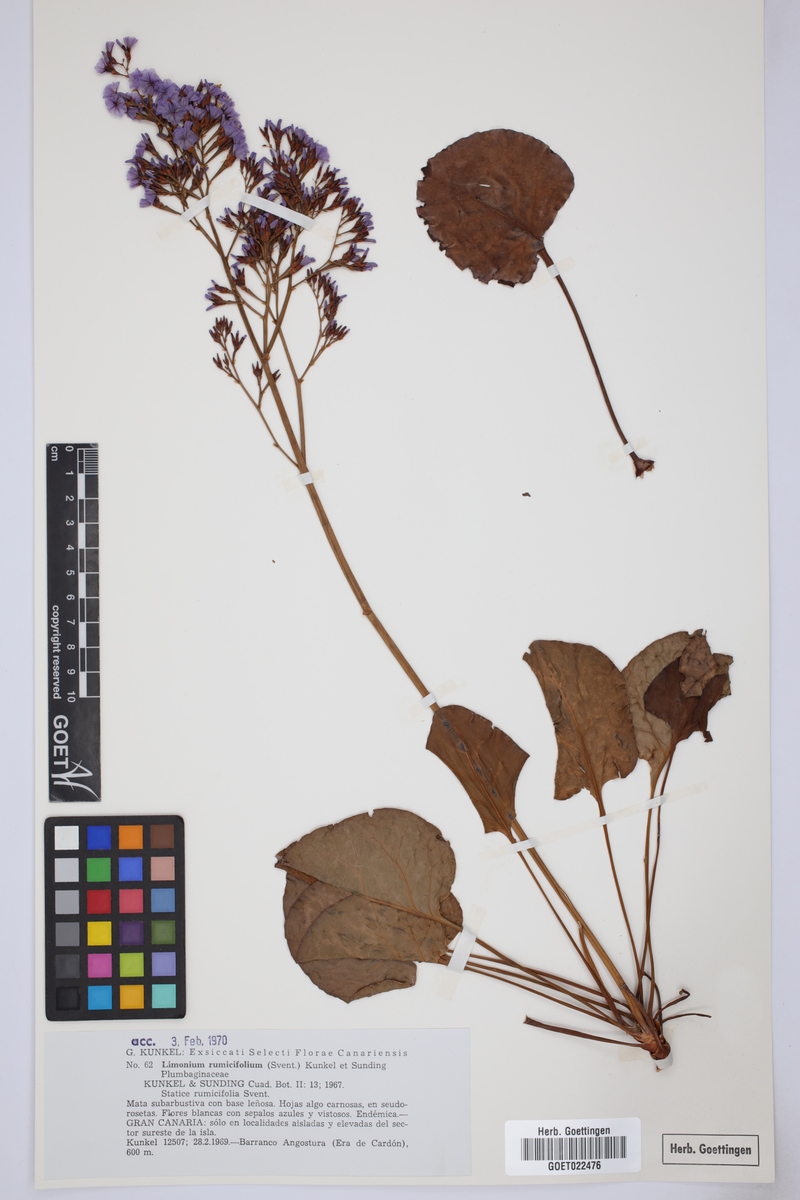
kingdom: Plantae
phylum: Tracheophyta
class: Magnoliopsida
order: Caryophyllales
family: Plumbaginaceae
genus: Limonium
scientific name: Limonium preauxii
